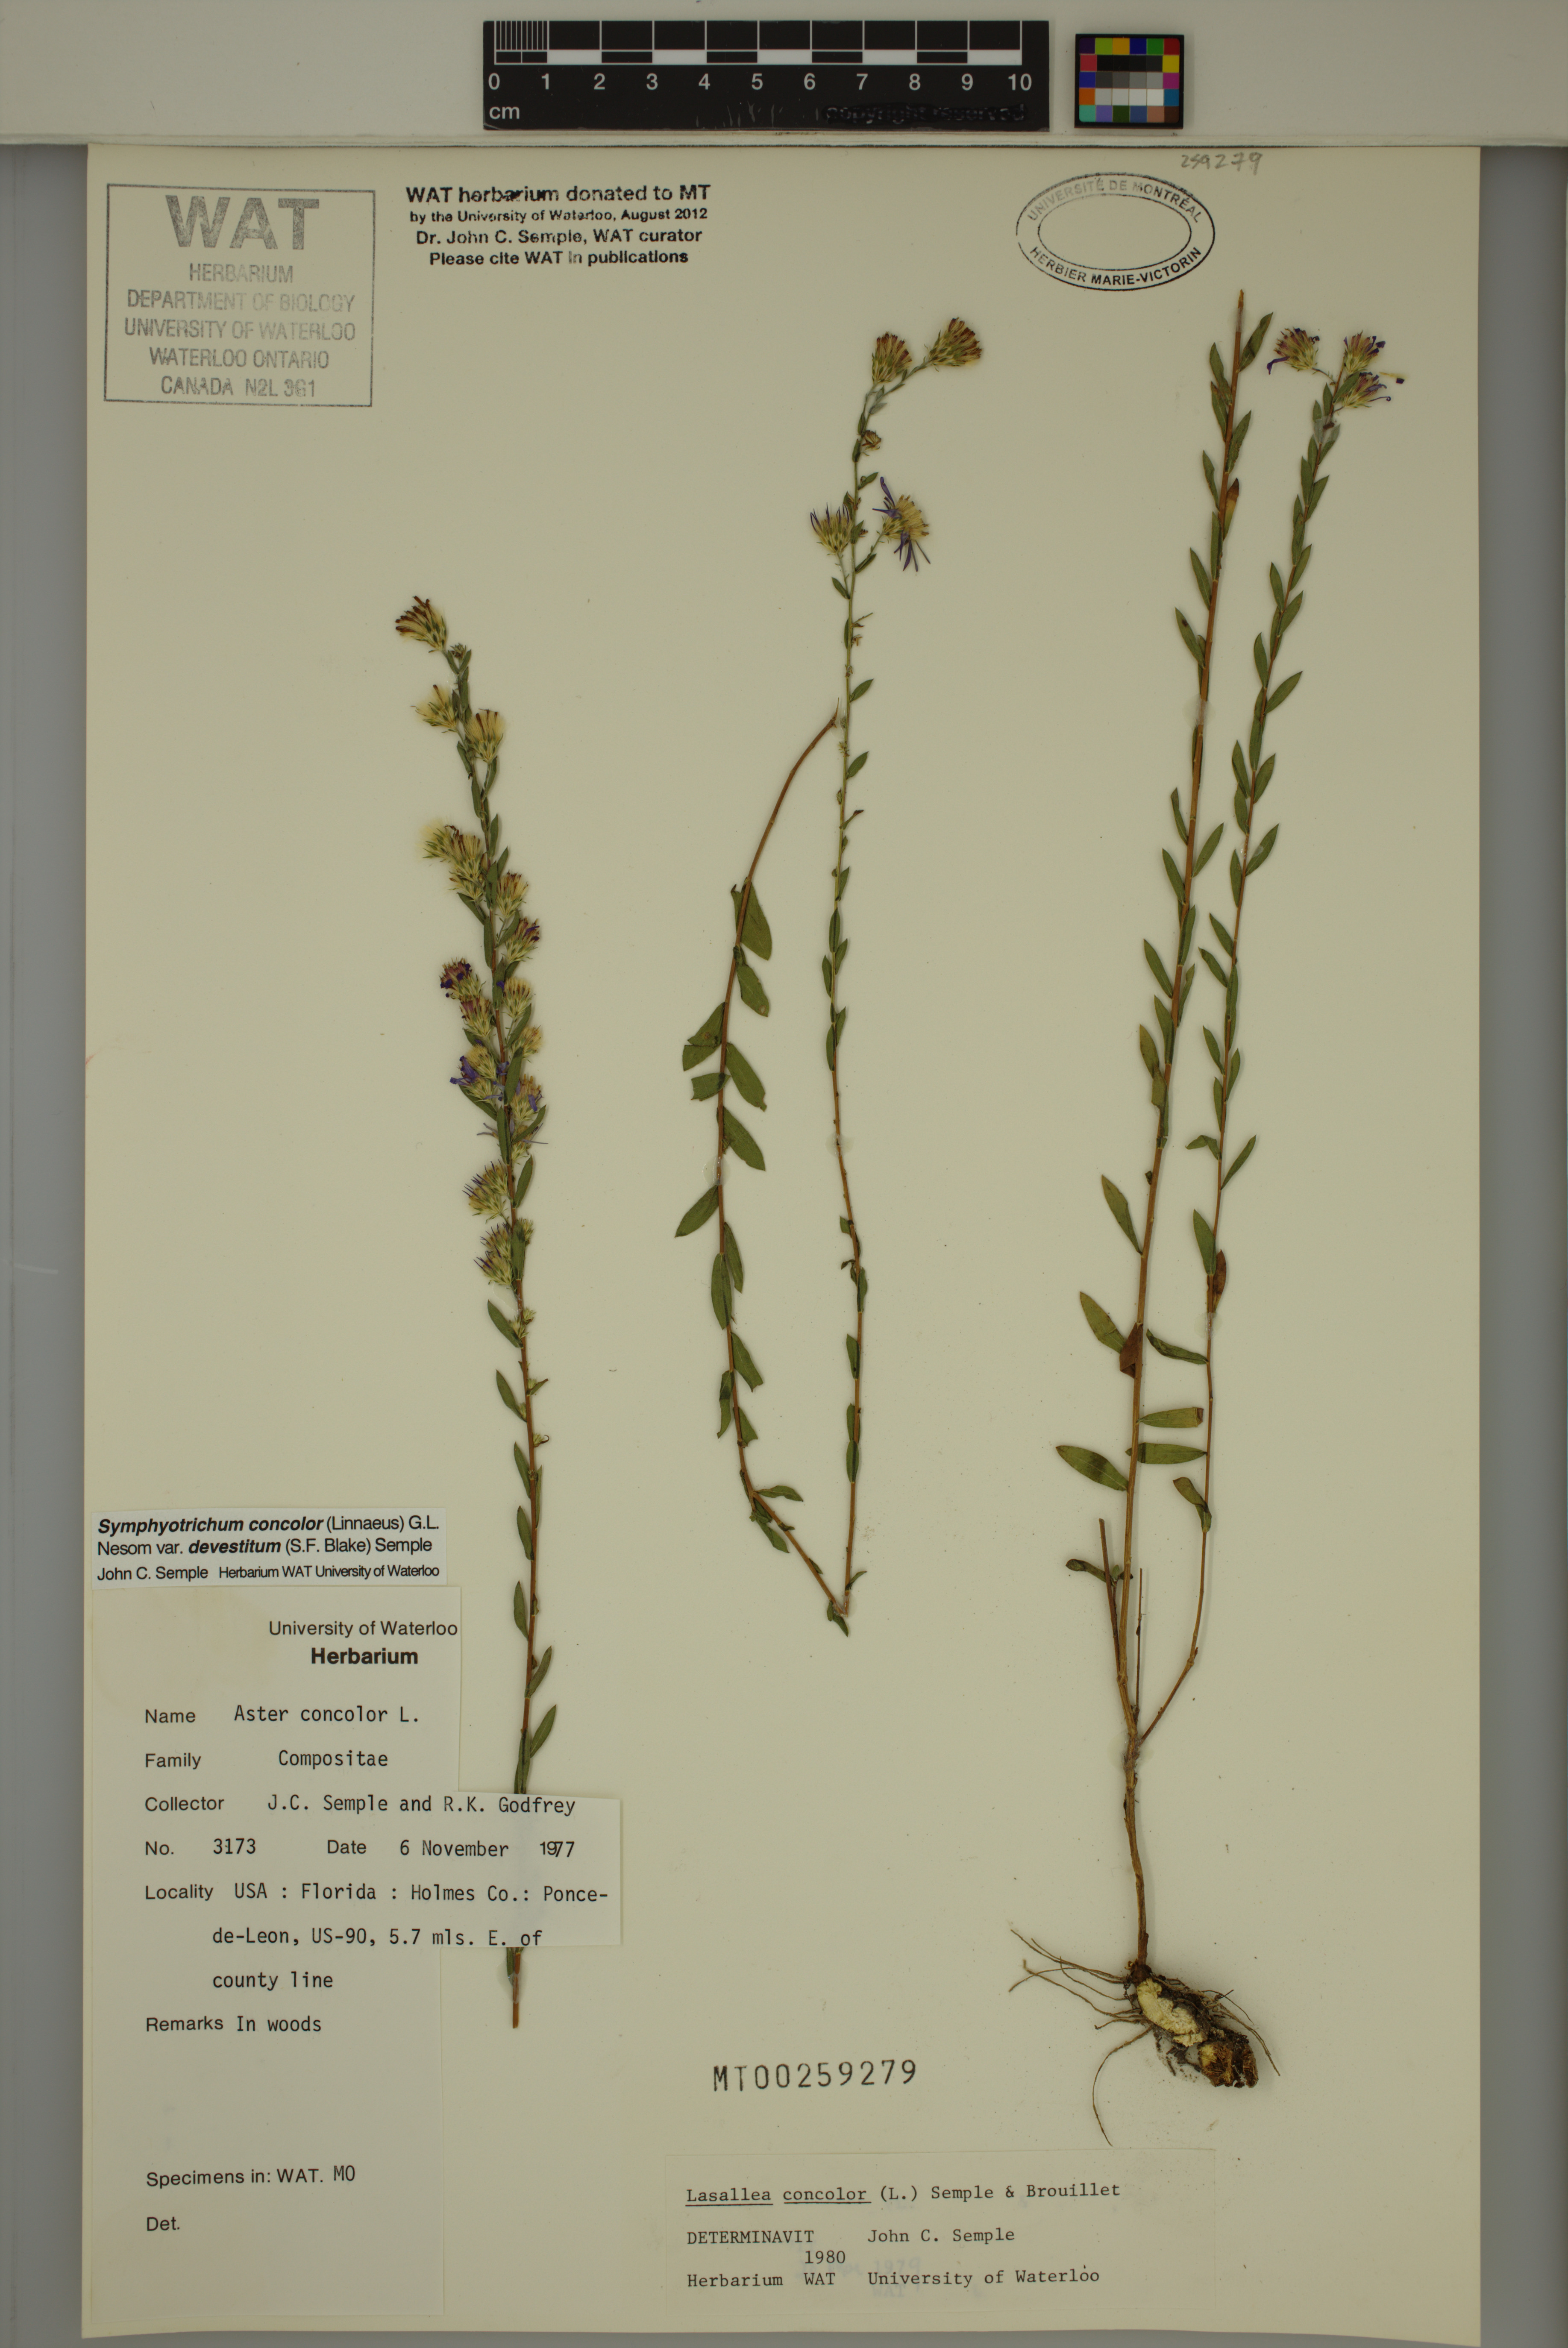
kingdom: Plantae
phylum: Tracheophyta
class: Magnoliopsida
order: Asterales
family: Asteraceae
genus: Symphyotrichum
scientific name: Symphyotrichum concolor
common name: Eastern silver aster
